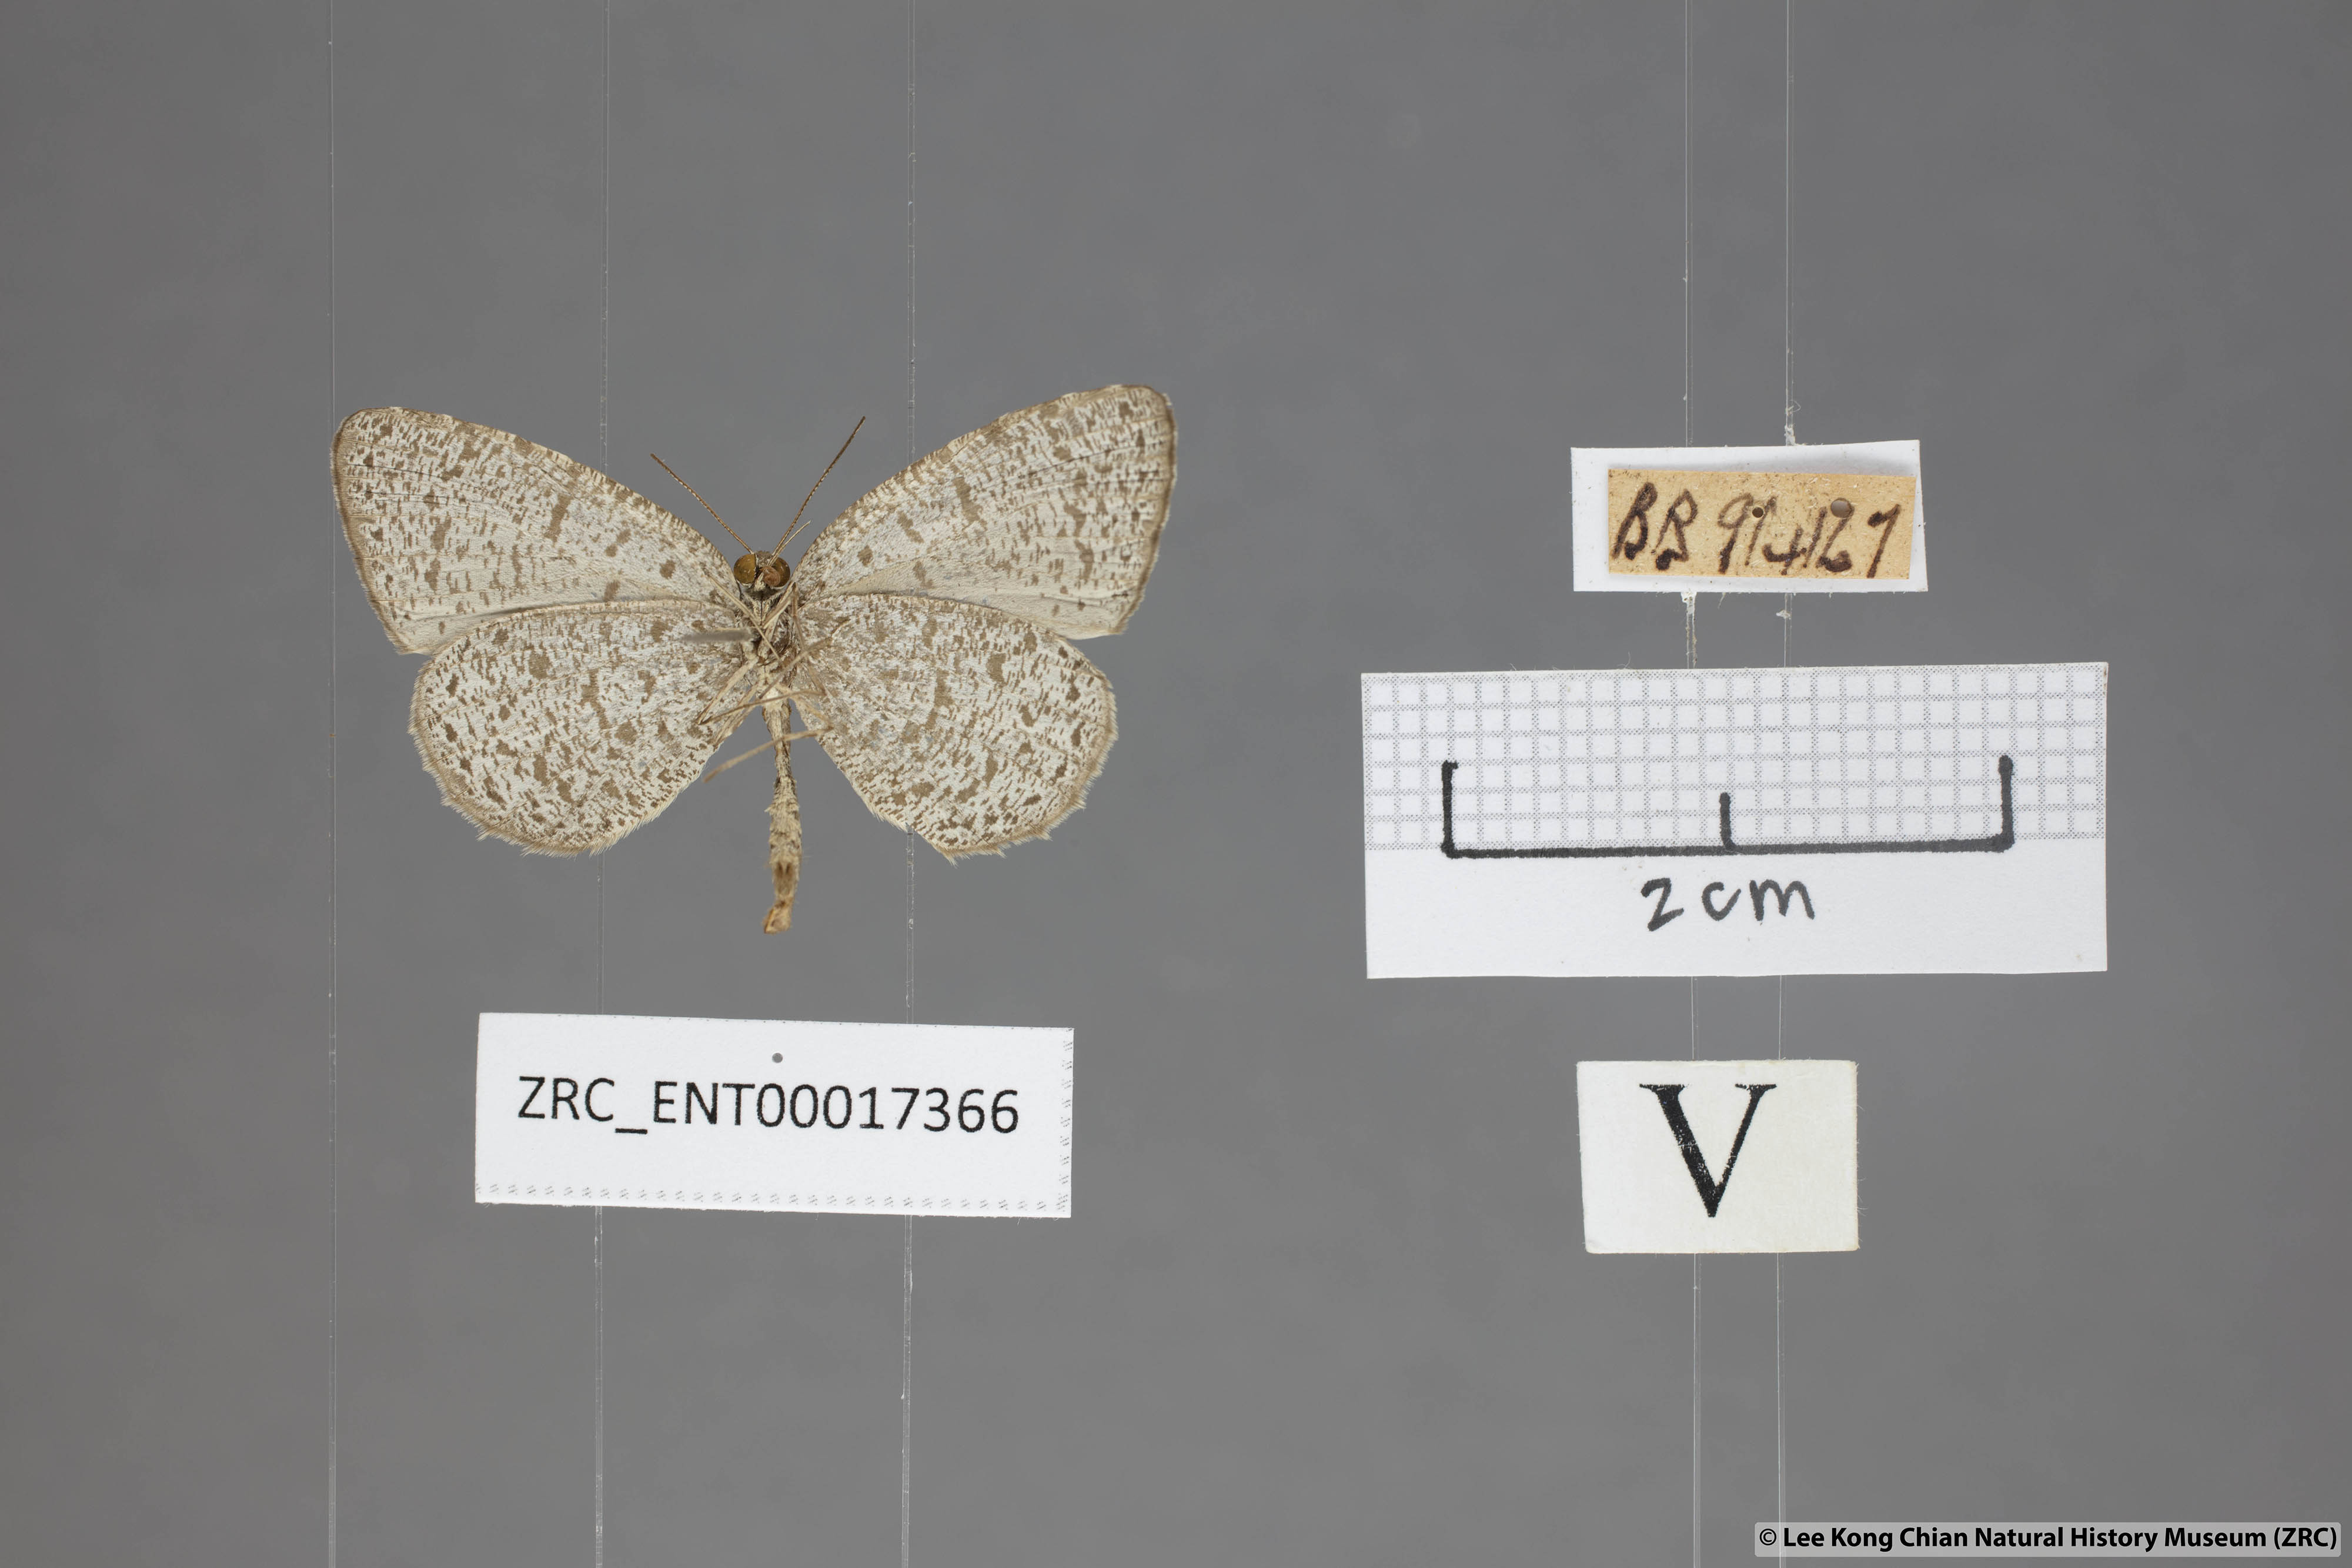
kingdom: Animalia
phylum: Arthropoda
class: Insecta
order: Lepidoptera
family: Lycaenidae
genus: Allotinus
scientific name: Allotinus unicolor
